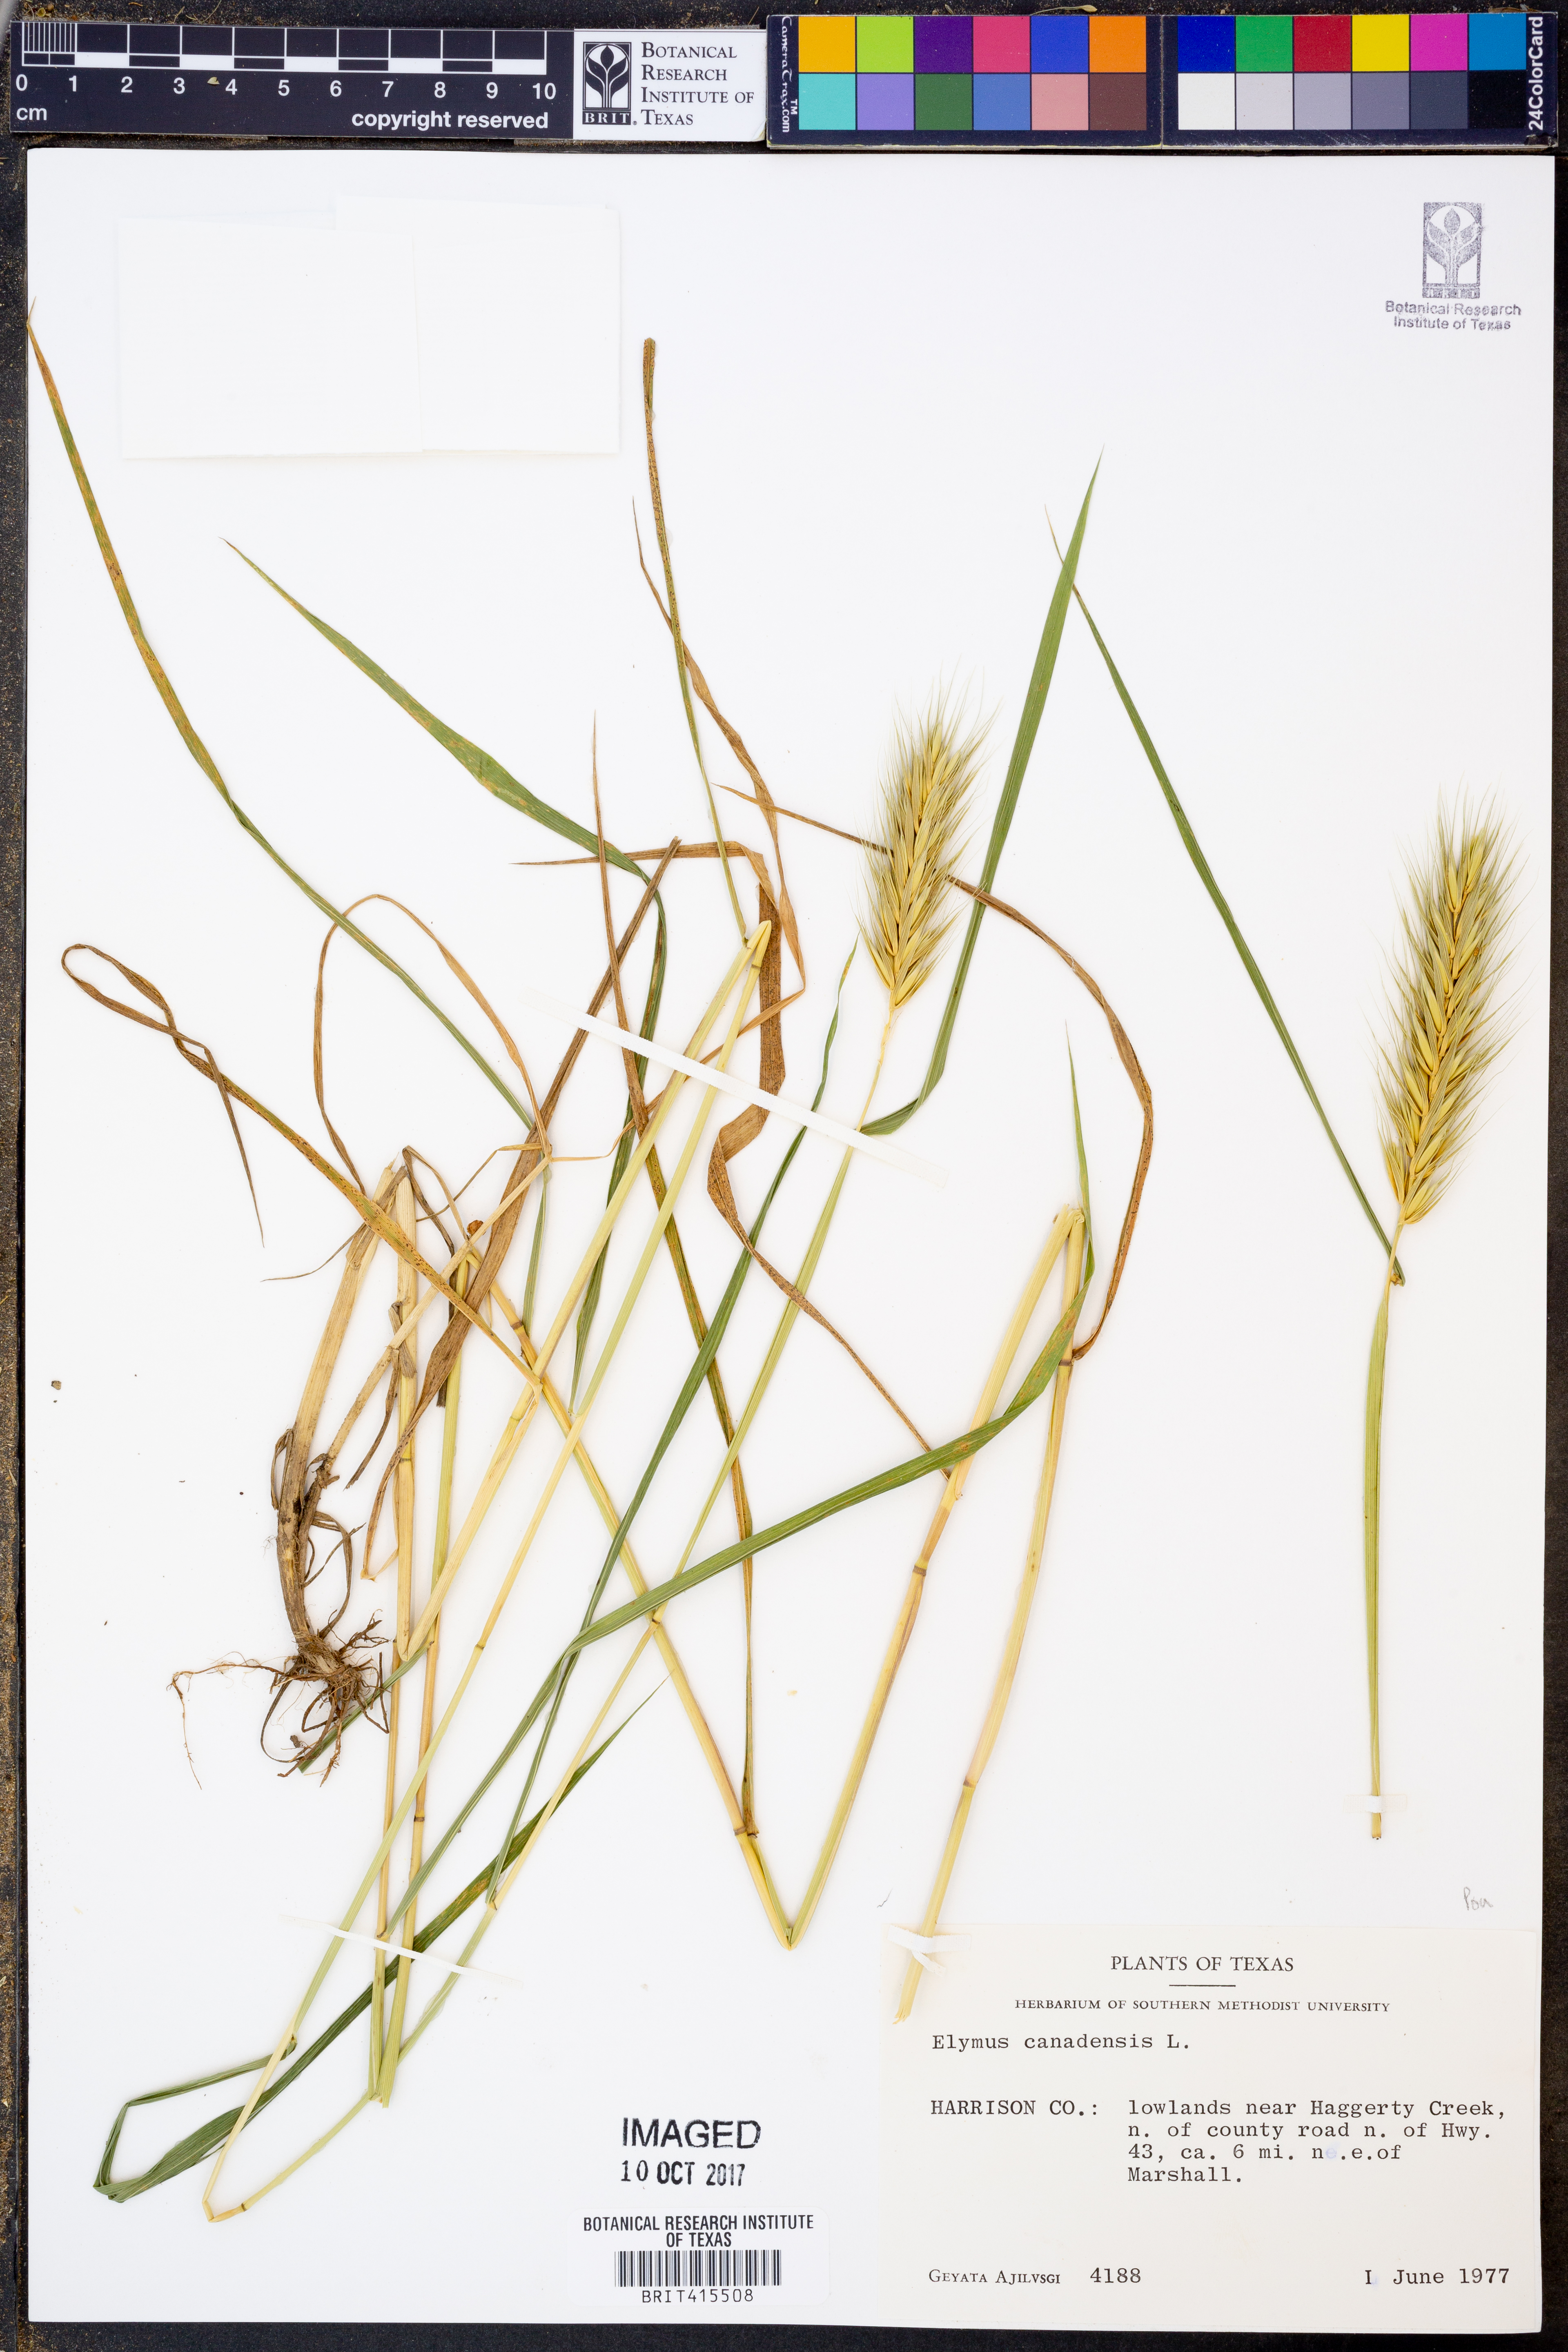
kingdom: Plantae
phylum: Tracheophyta
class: Liliopsida
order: Poales
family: Poaceae
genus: Elymus
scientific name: Elymus canadensis
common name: Canada wild rye
